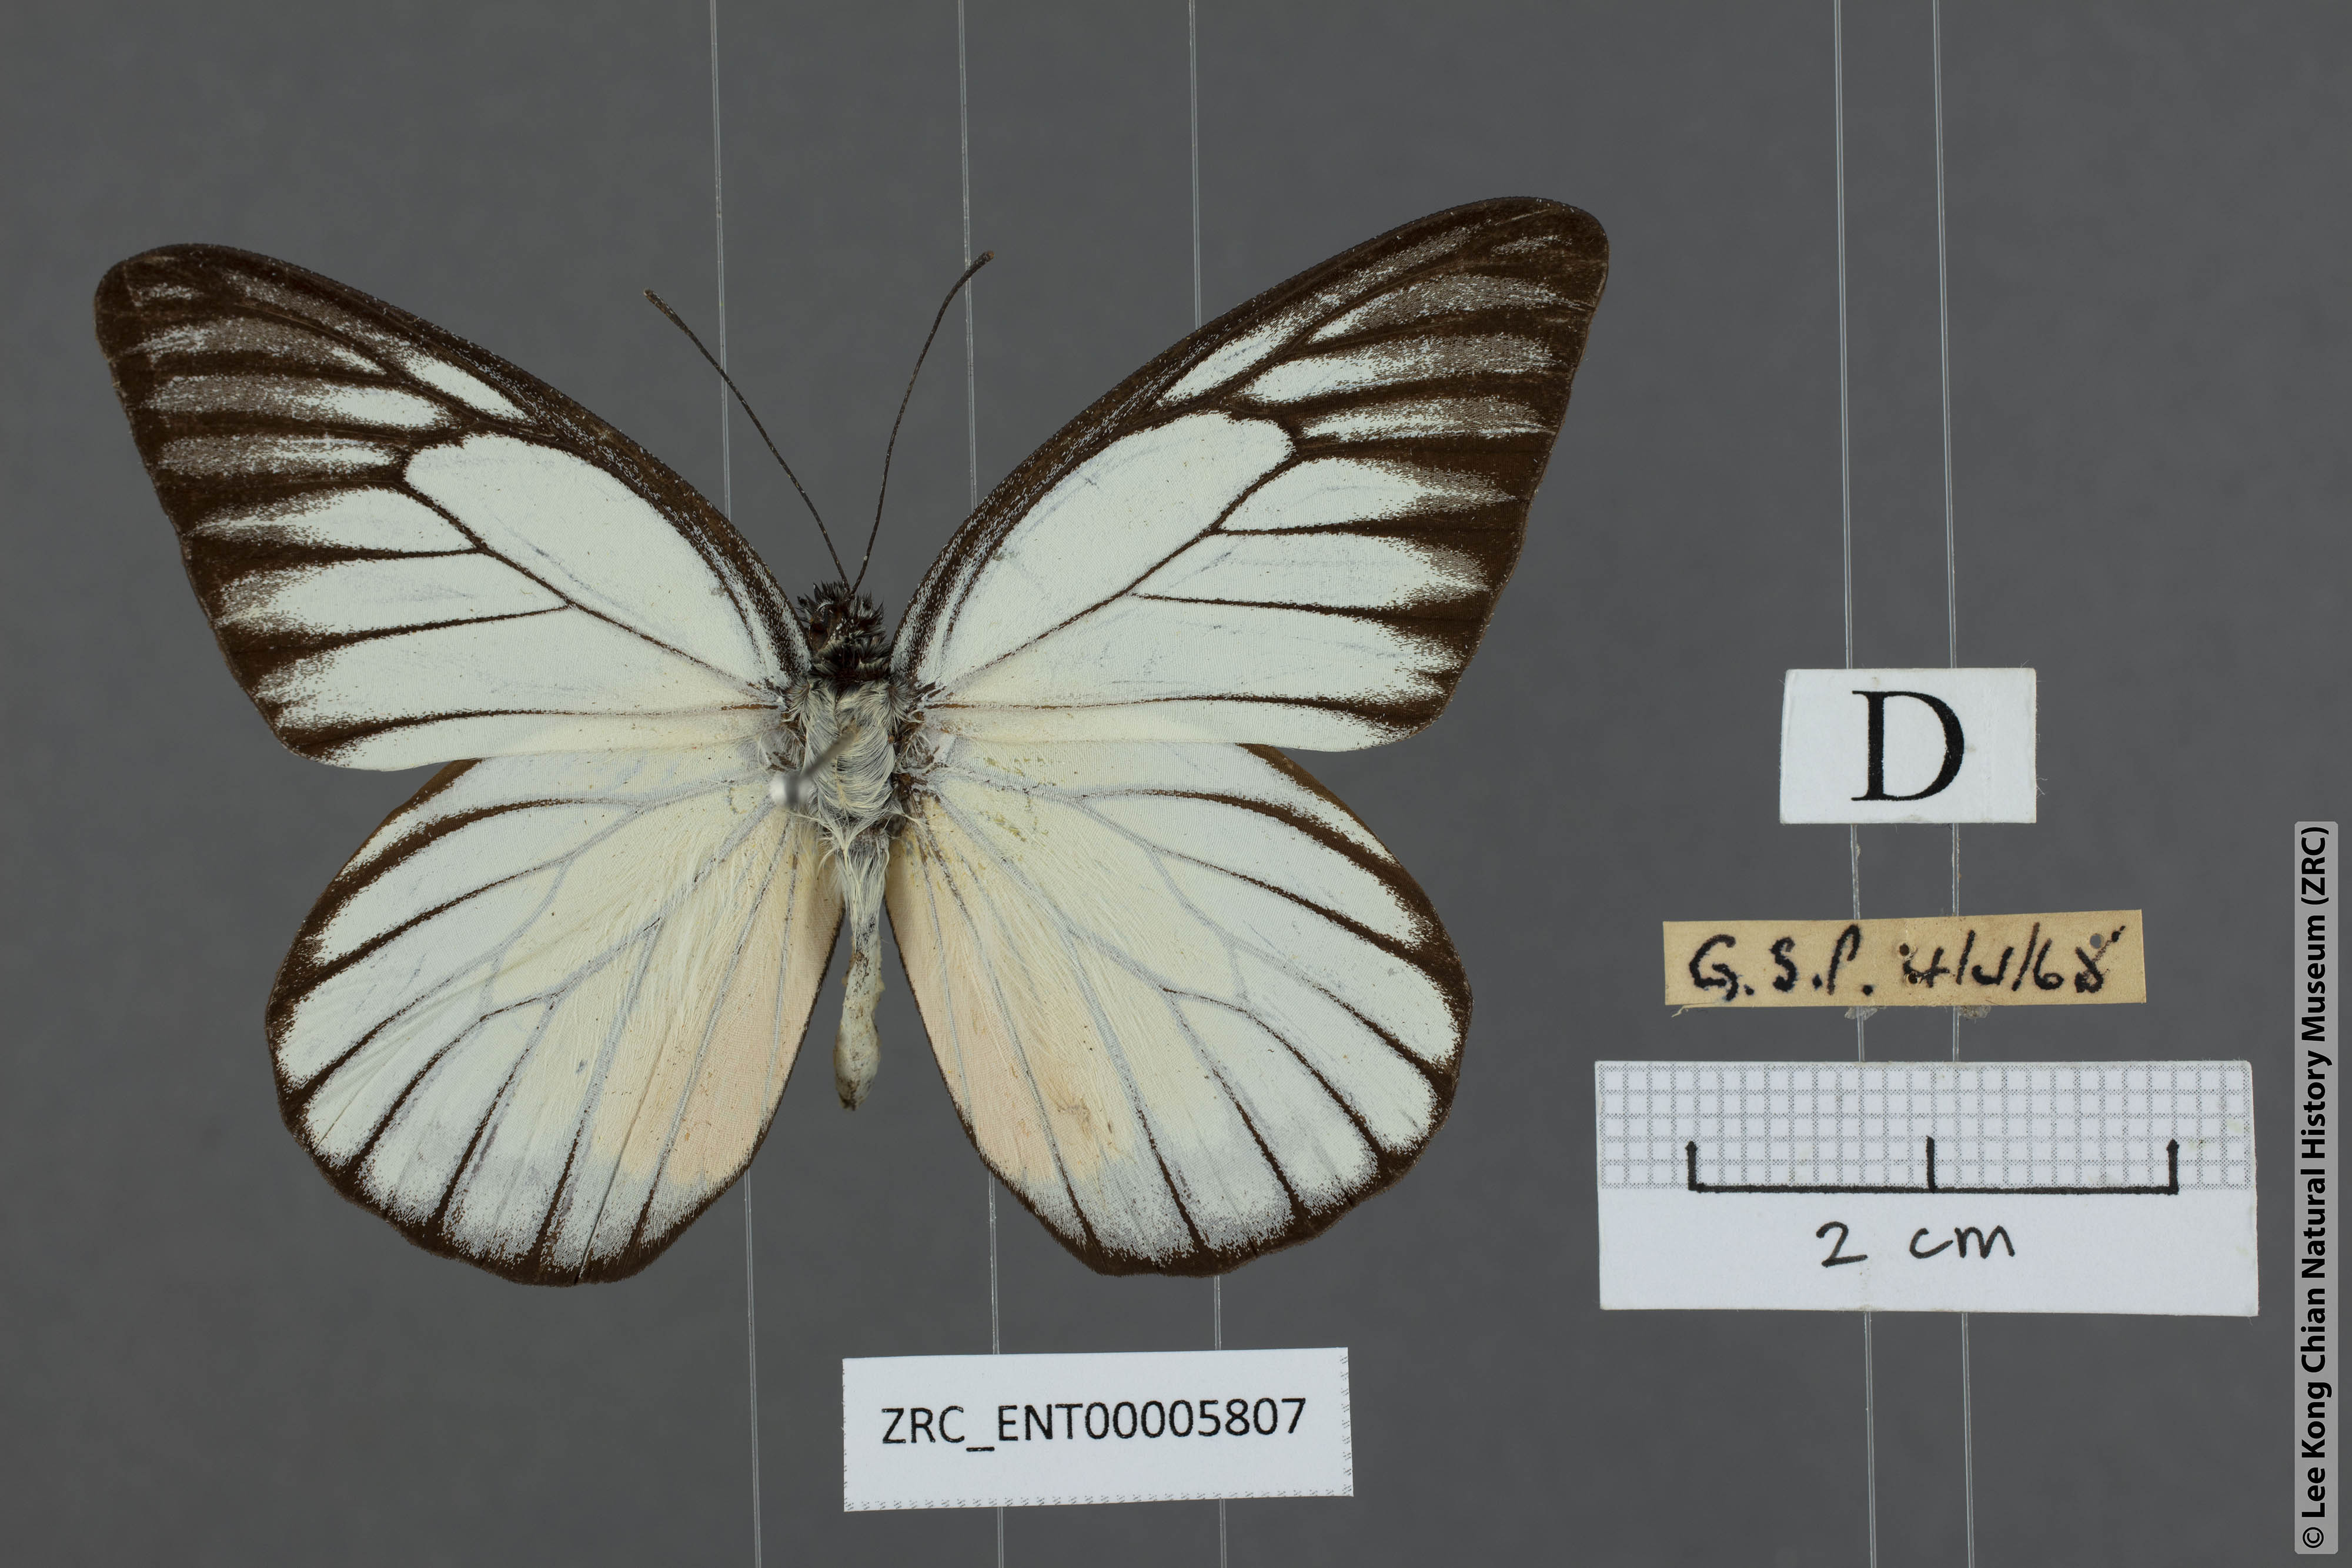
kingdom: Animalia
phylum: Arthropoda
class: Insecta
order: Lepidoptera
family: Pieridae
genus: Prioneris
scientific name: Prioneris philonome
